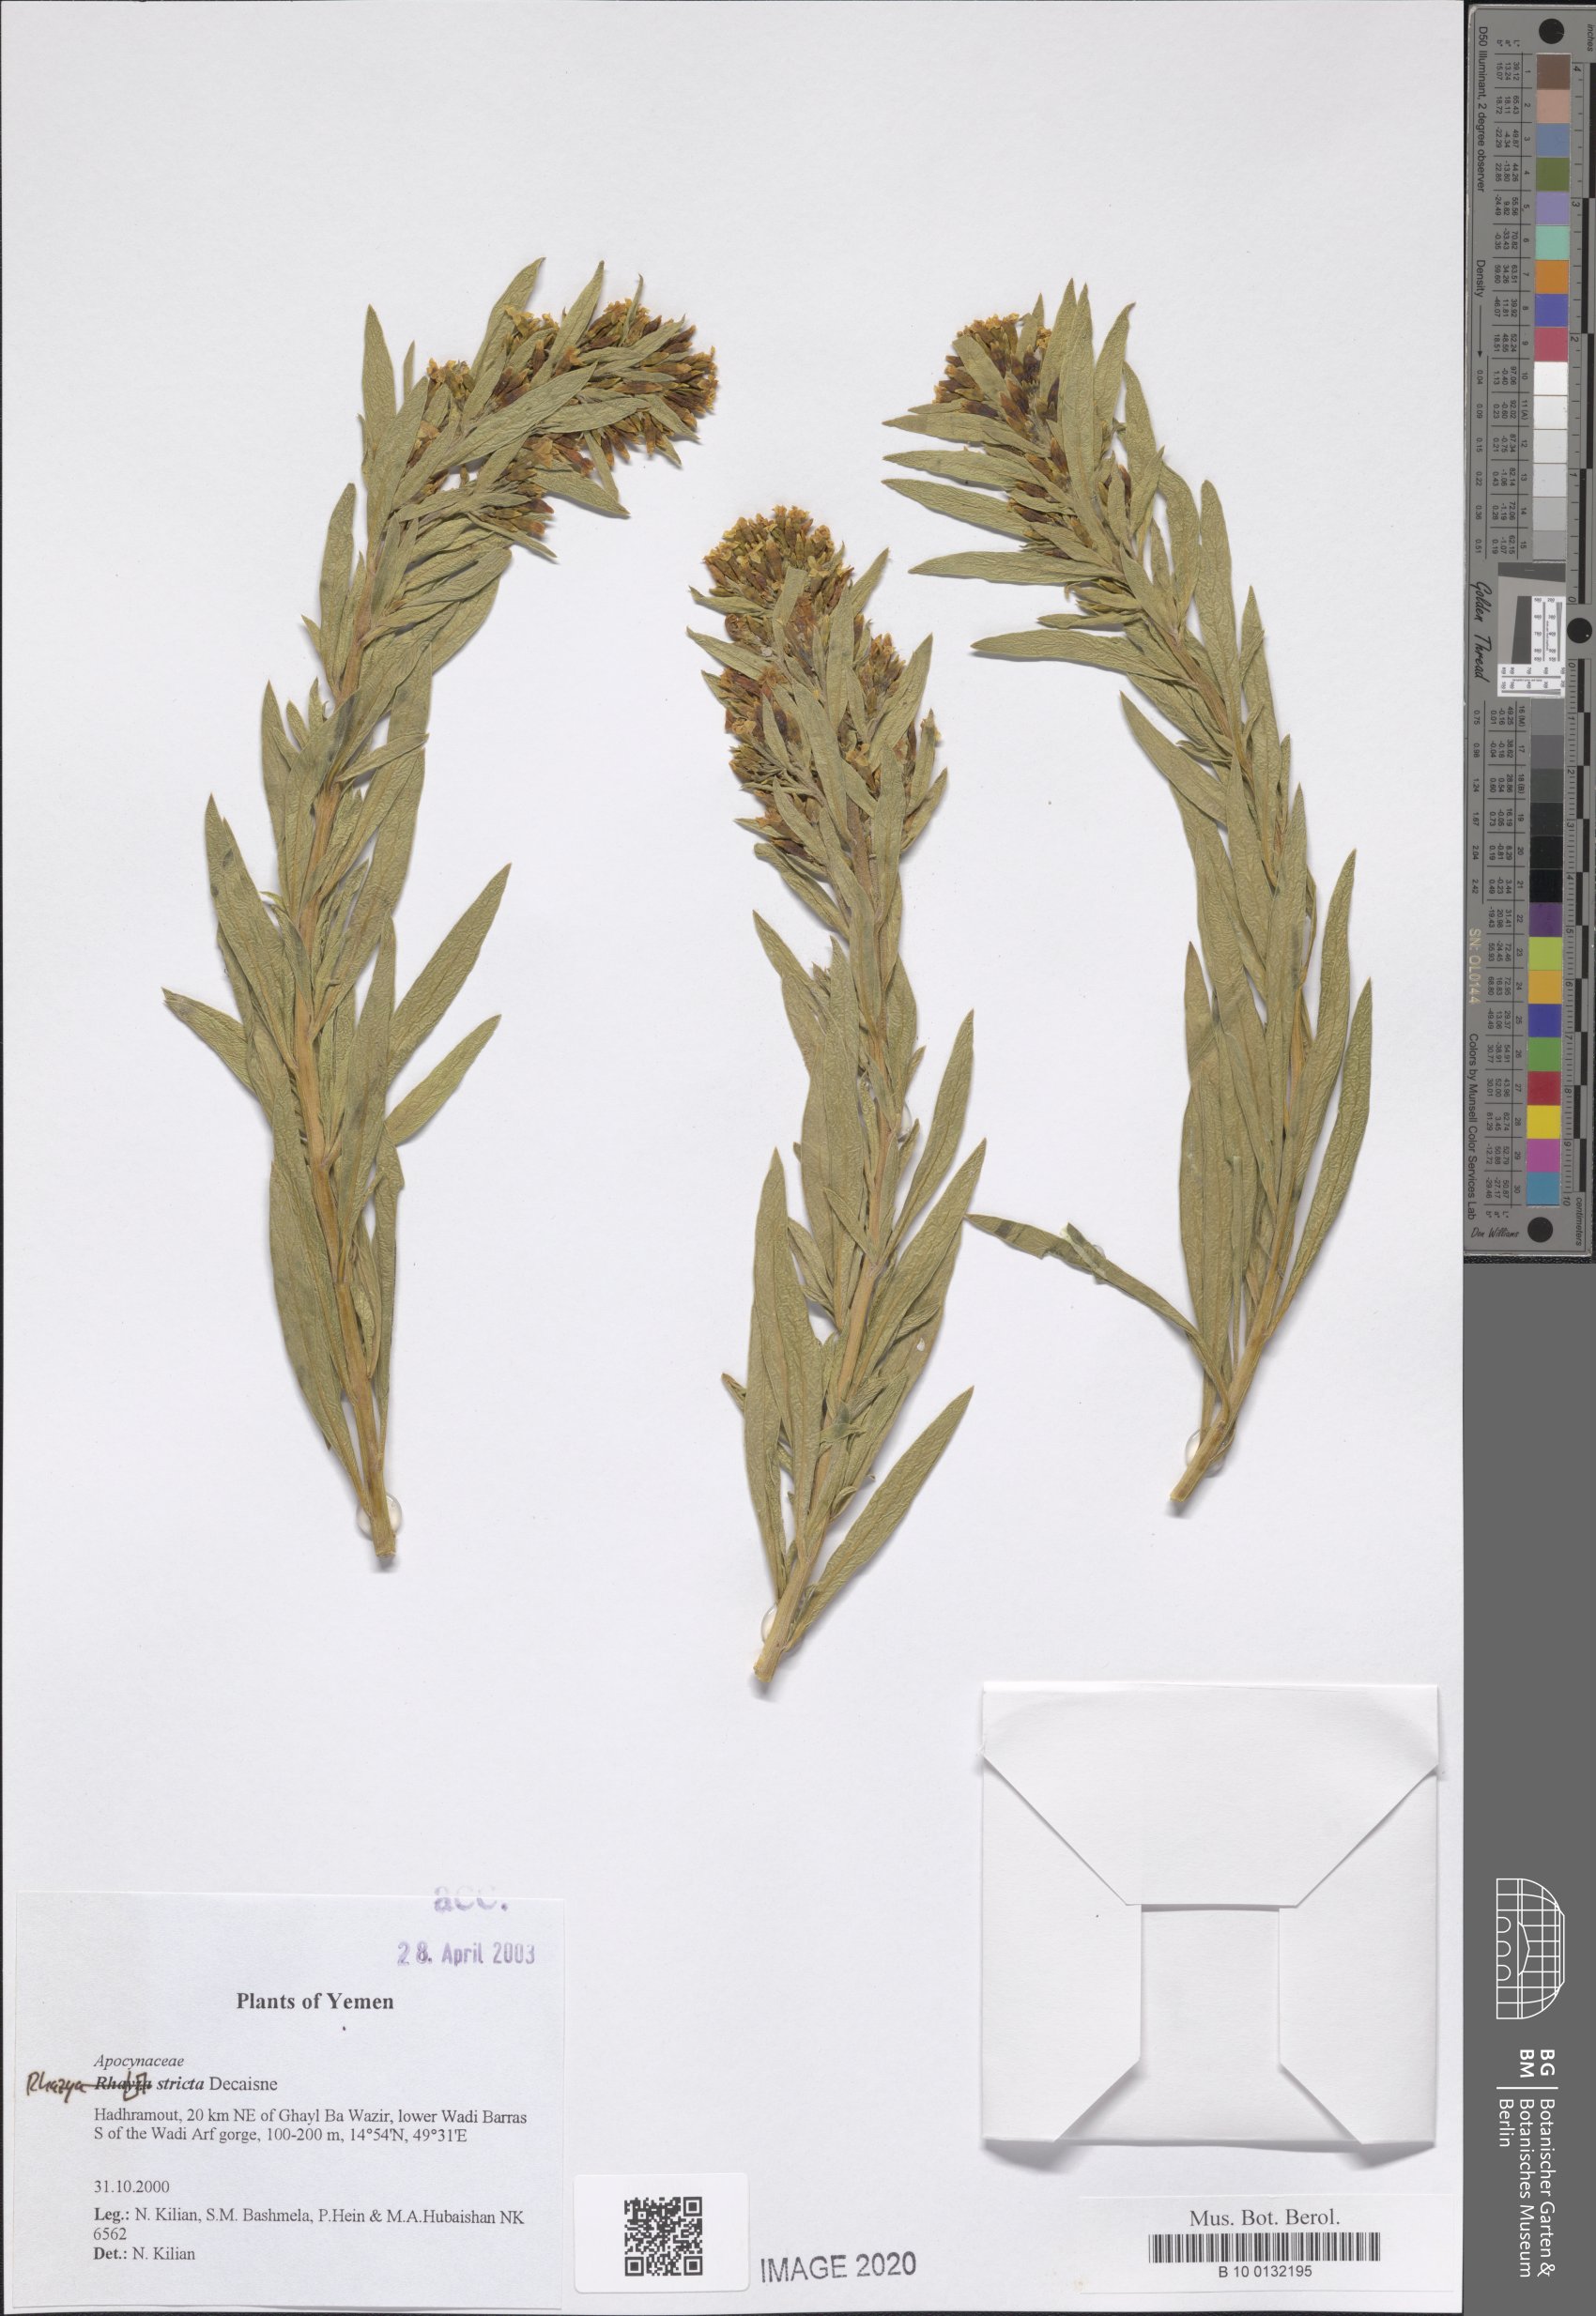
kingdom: Plantae
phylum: Tracheophyta
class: Magnoliopsida
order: Gentianales
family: Apocynaceae
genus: Rhazya
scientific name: Rhazya stricta
